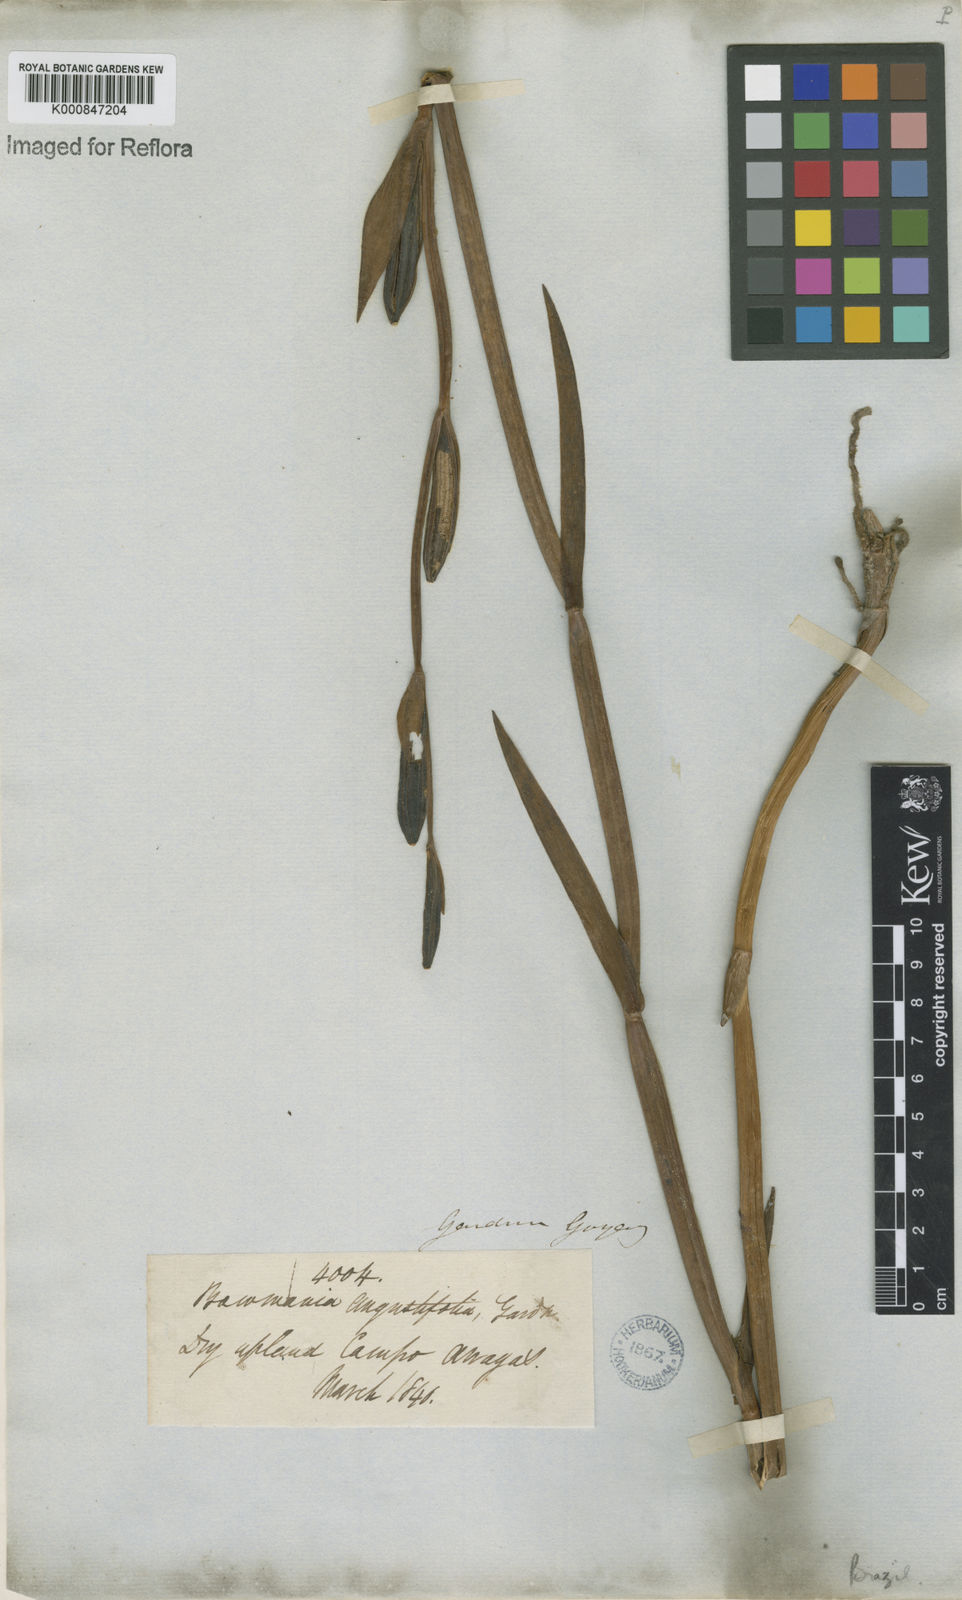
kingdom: Plantae
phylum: Tracheophyta
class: Liliopsida
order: Asparagales
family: Orchidaceae
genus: Cleistes
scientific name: Cleistes
